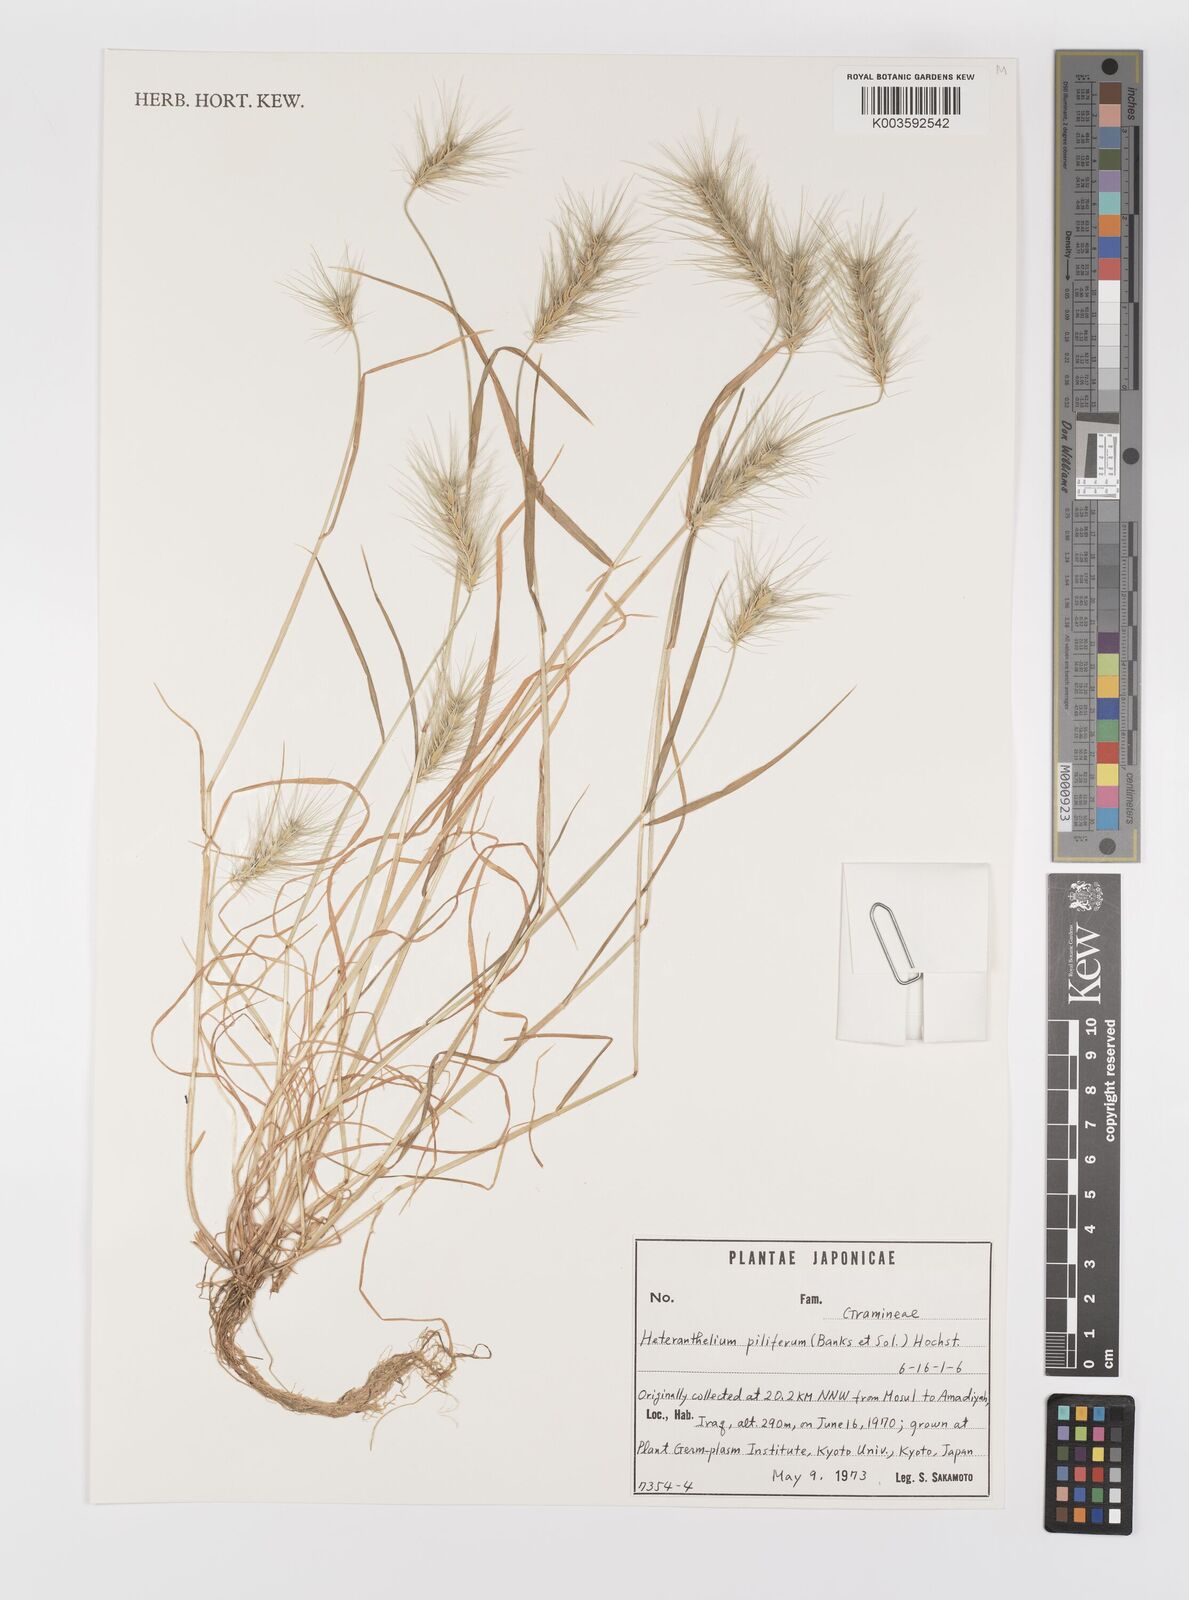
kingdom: Plantae
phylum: Tracheophyta
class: Liliopsida
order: Poales
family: Poaceae
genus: Heteranthelium
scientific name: Heteranthelium piliferum
